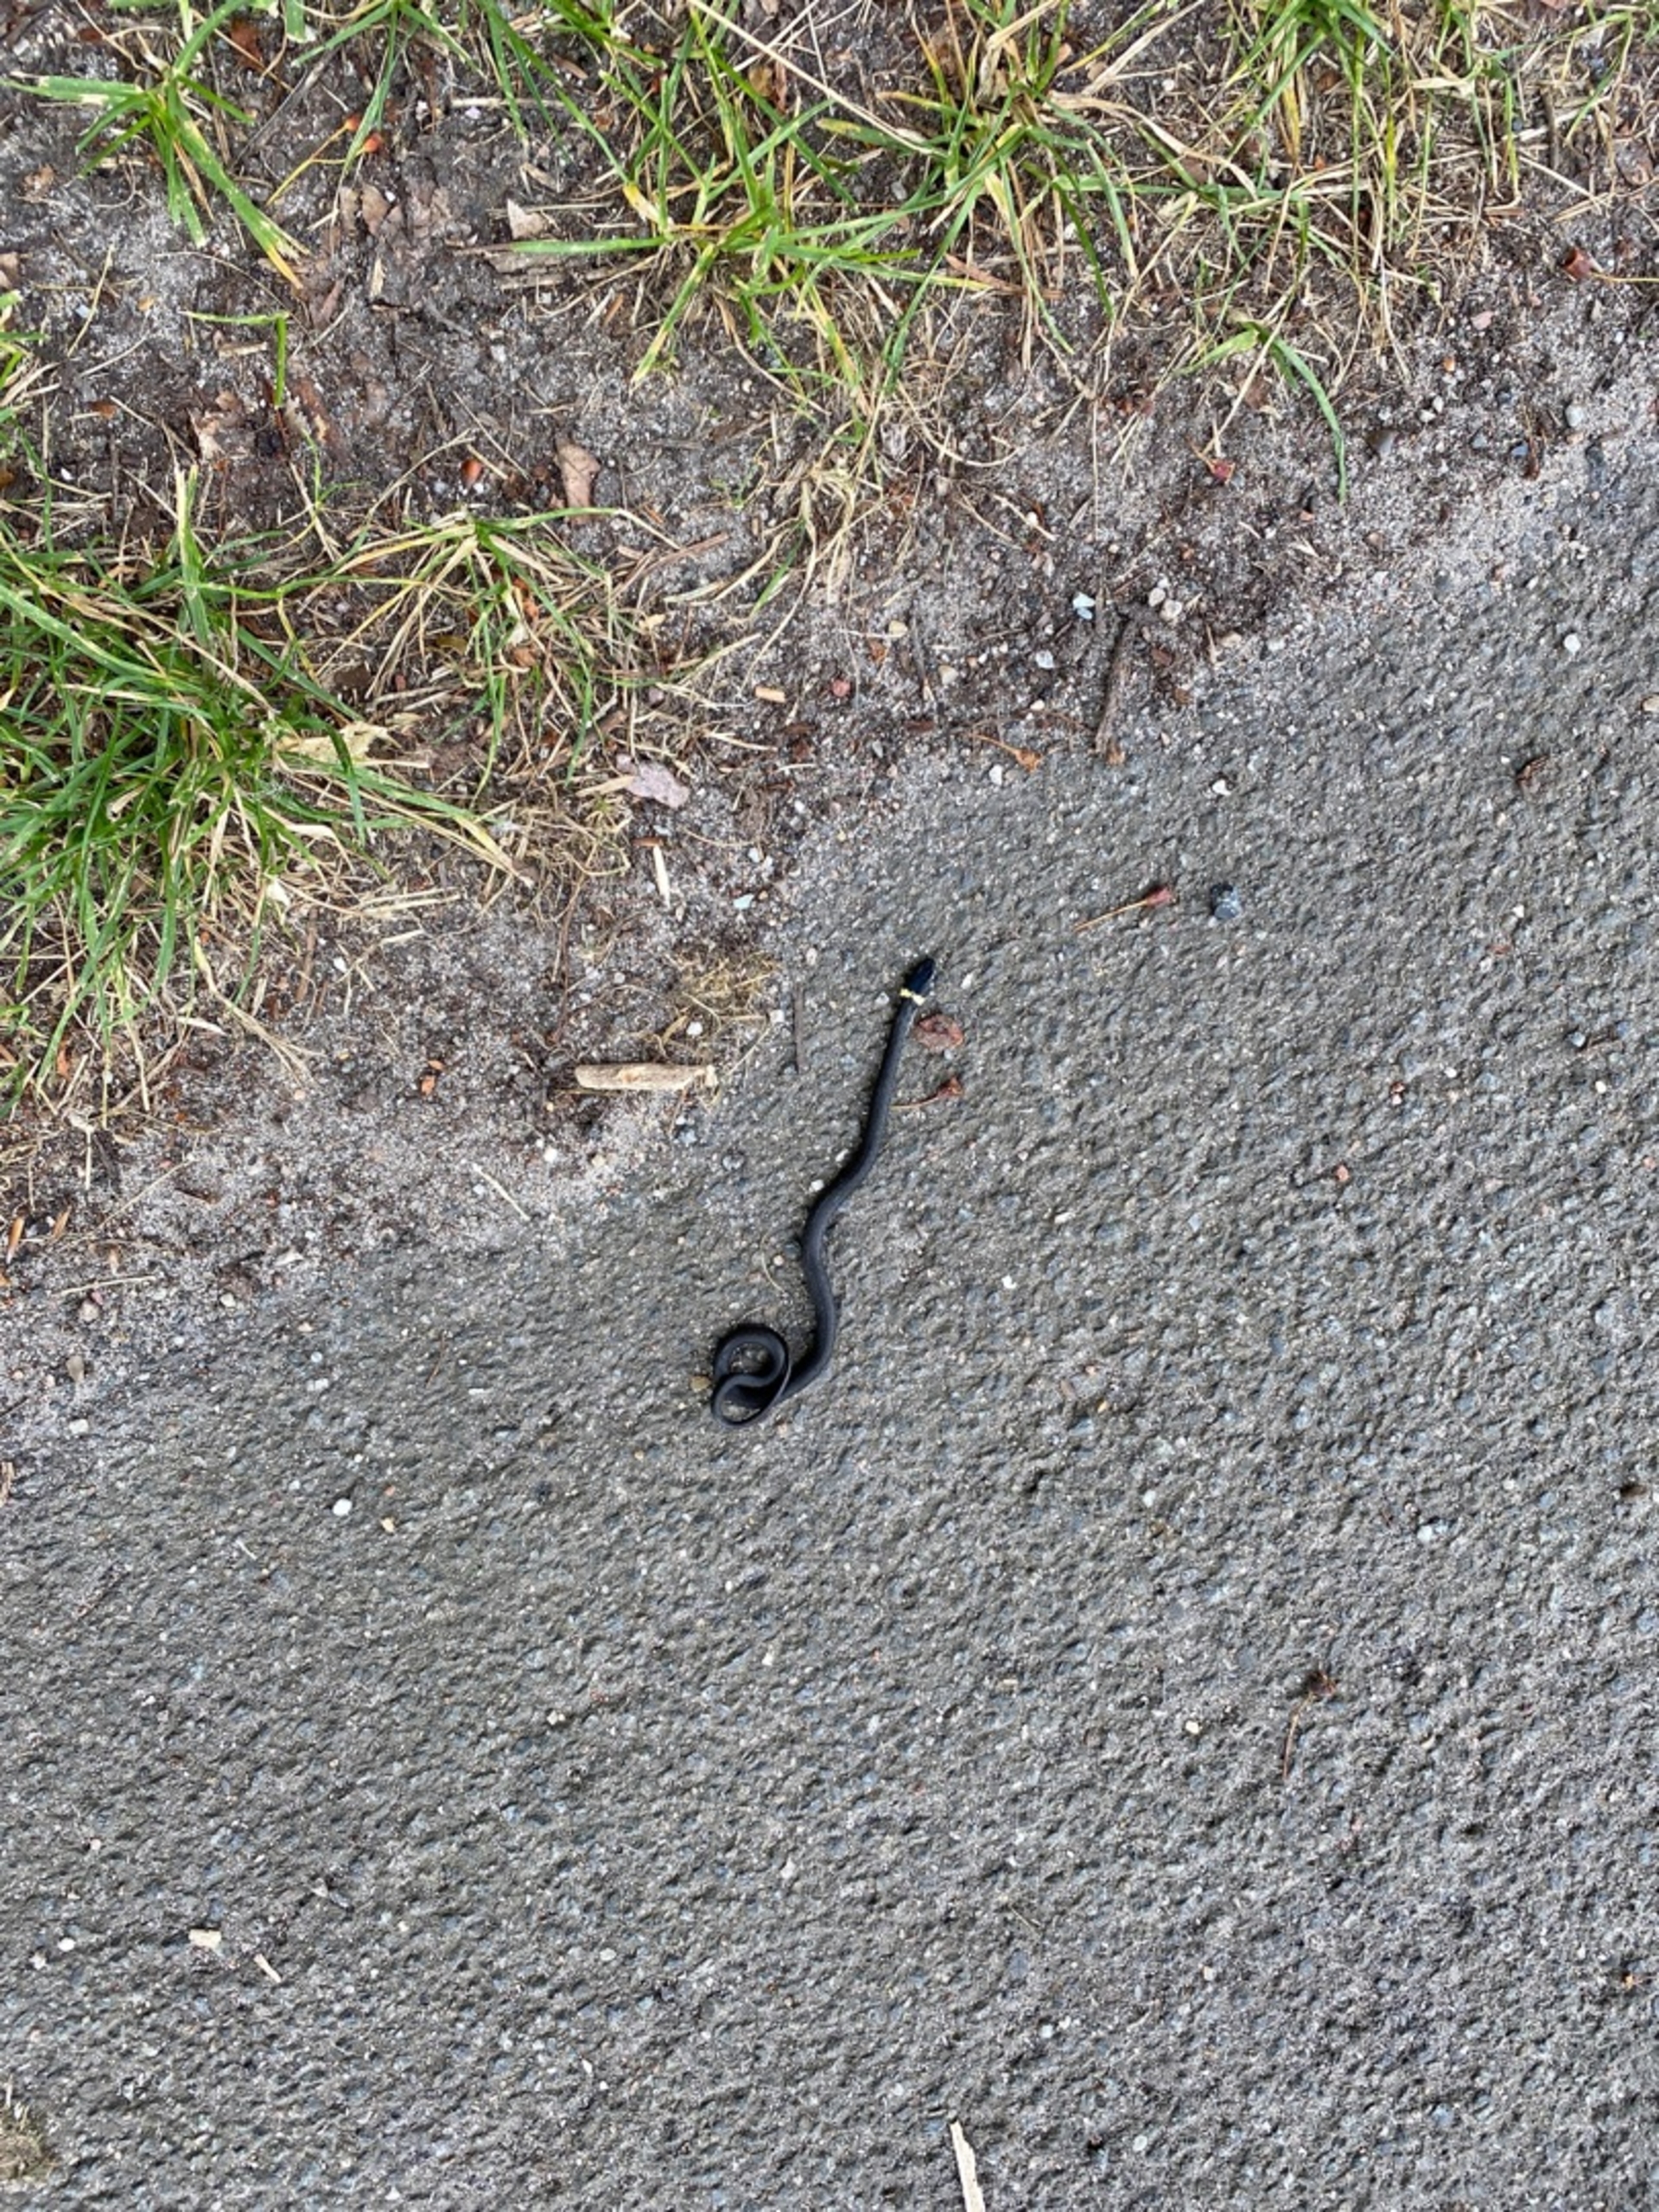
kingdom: Animalia
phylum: Chordata
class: Squamata
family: Colubridae
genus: Natrix
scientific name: Natrix natrix
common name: Snog
